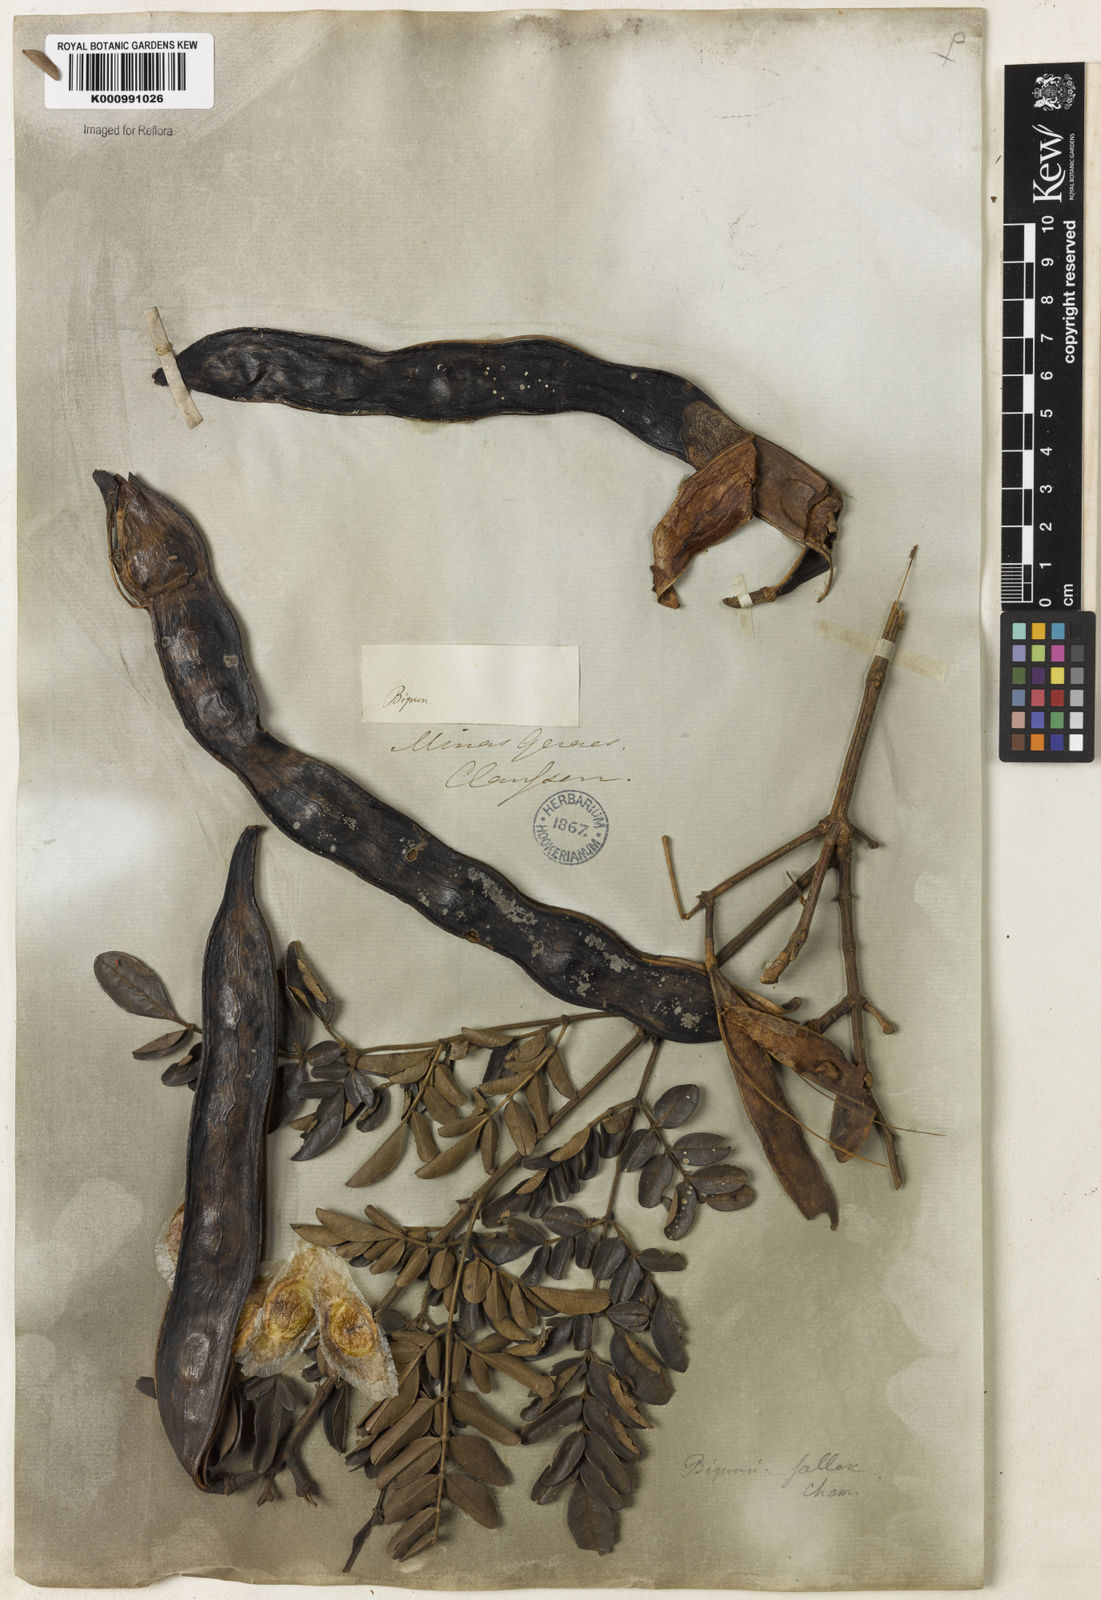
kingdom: Plantae
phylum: Tracheophyta
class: Magnoliopsida
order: Lamiales
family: Bignoniaceae
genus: Adenocalymma
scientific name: Adenocalymma pubescens
